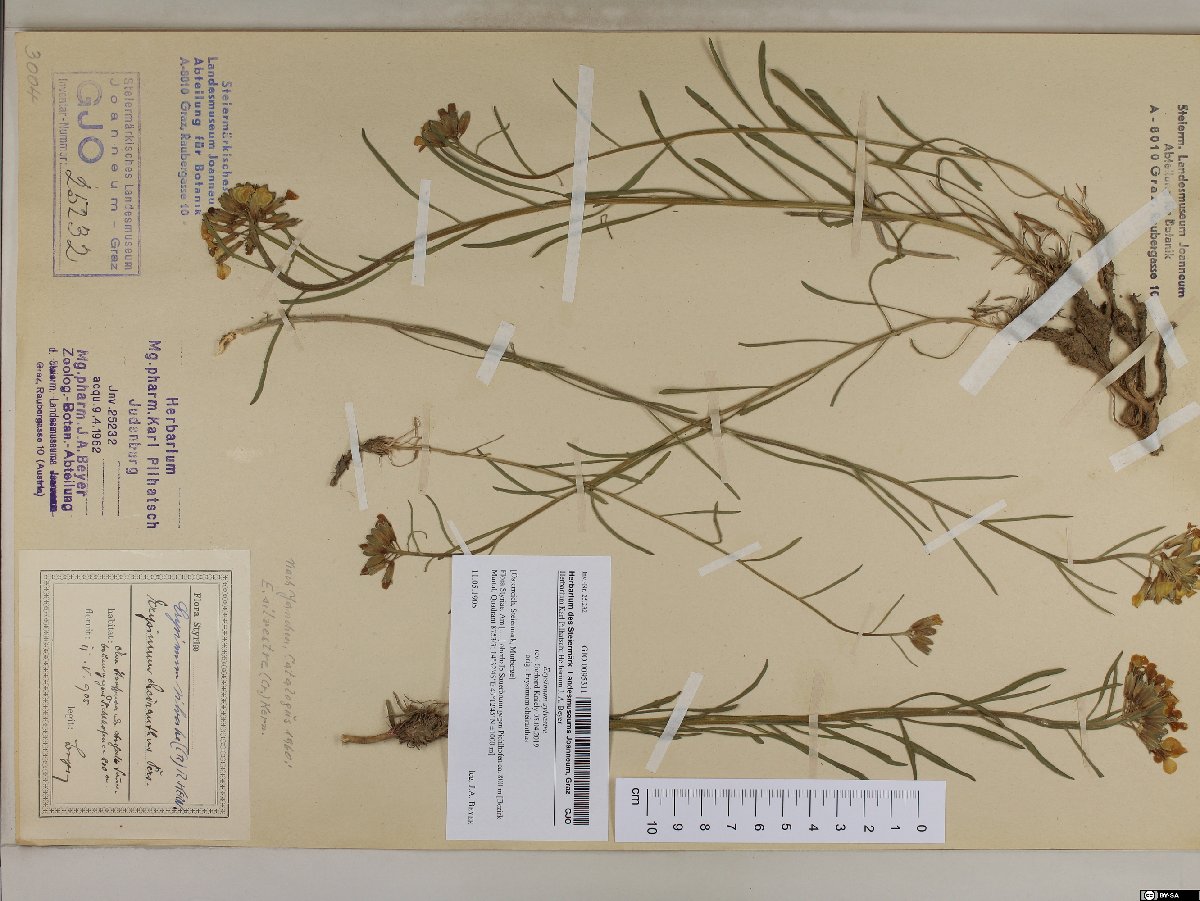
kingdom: Plantae
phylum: Tracheophyta
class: Magnoliopsida
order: Brassicales
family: Brassicaceae
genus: Erysimum
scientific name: Erysimum sylvestre
